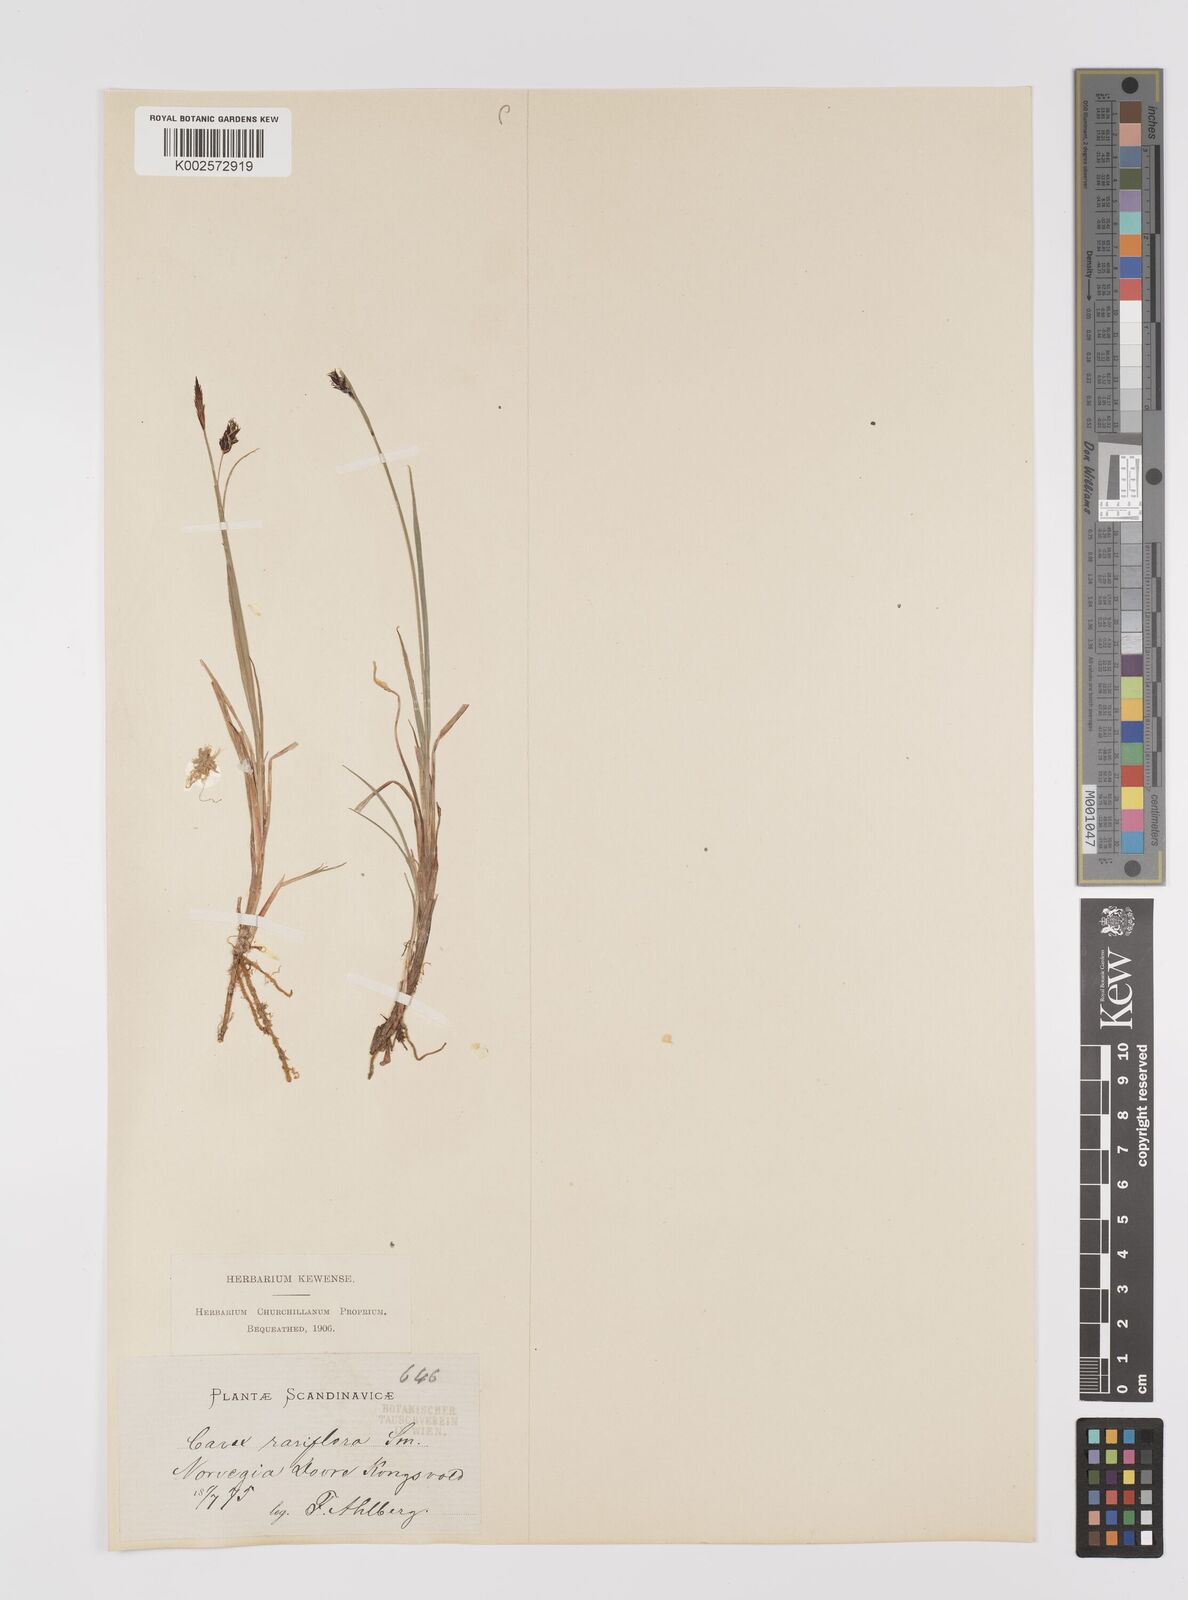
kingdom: Plantae
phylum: Tracheophyta
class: Liliopsida
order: Poales
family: Cyperaceae
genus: Carex
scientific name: Carex rariflora
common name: Loose-flowered alpine sedge
